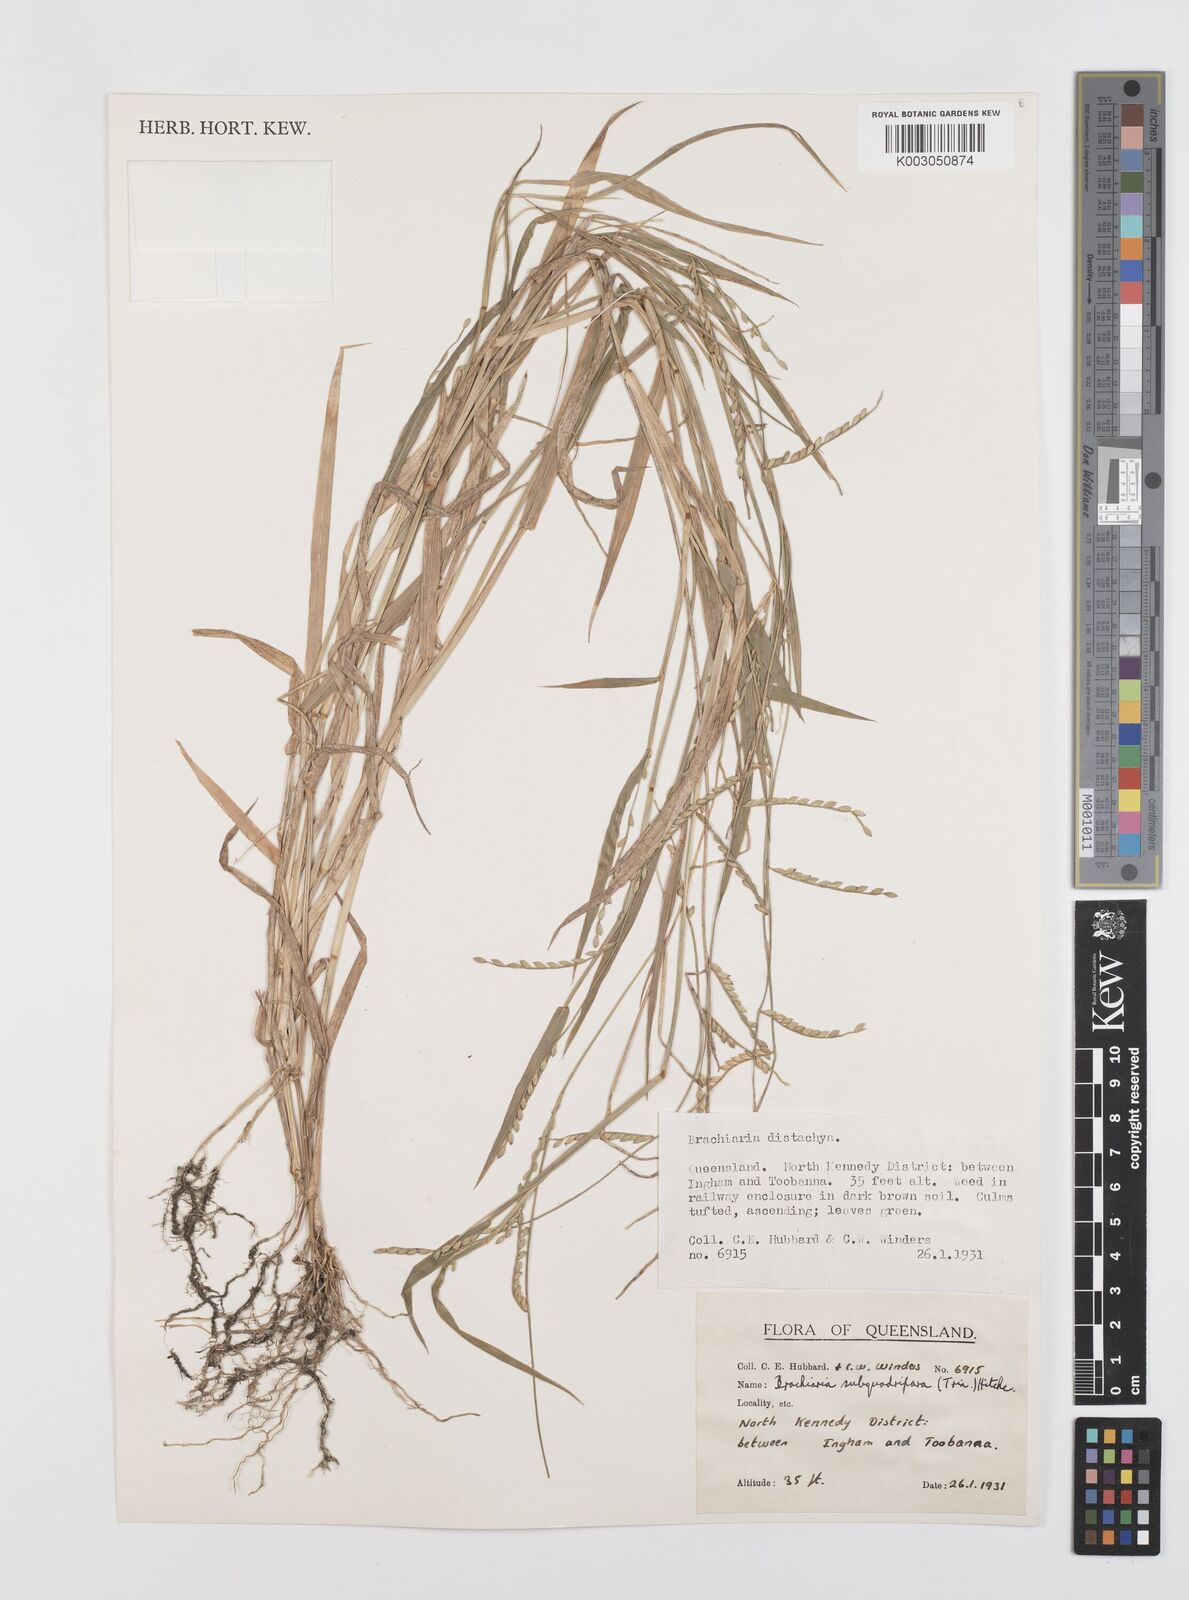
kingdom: Plantae
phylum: Tracheophyta
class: Liliopsida
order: Poales
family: Poaceae
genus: Urochloa
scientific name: Urochloa subquadripara
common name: Armgrass millet
